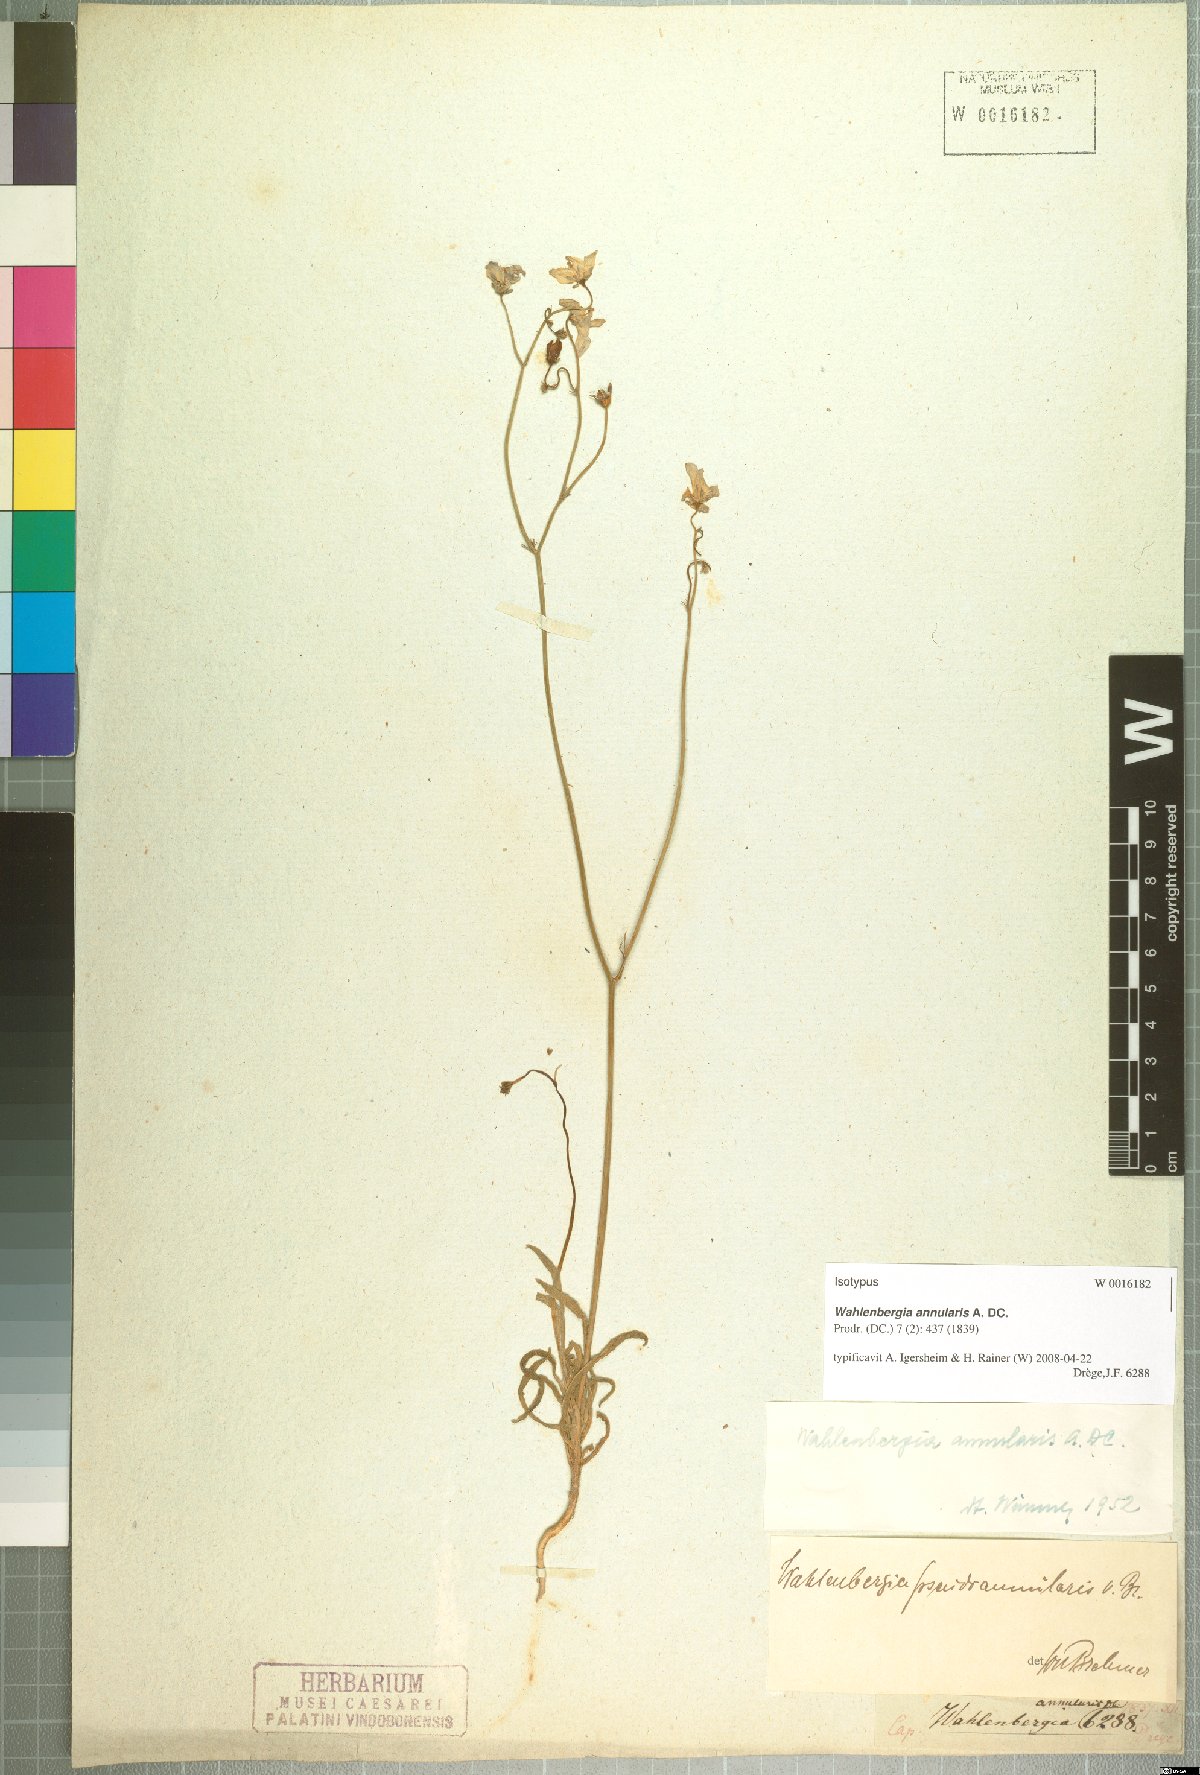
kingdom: Plantae
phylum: Tracheophyta
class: Magnoliopsida
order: Asterales
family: Campanulaceae
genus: Wahlenbergia
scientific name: Wahlenbergia annularis
